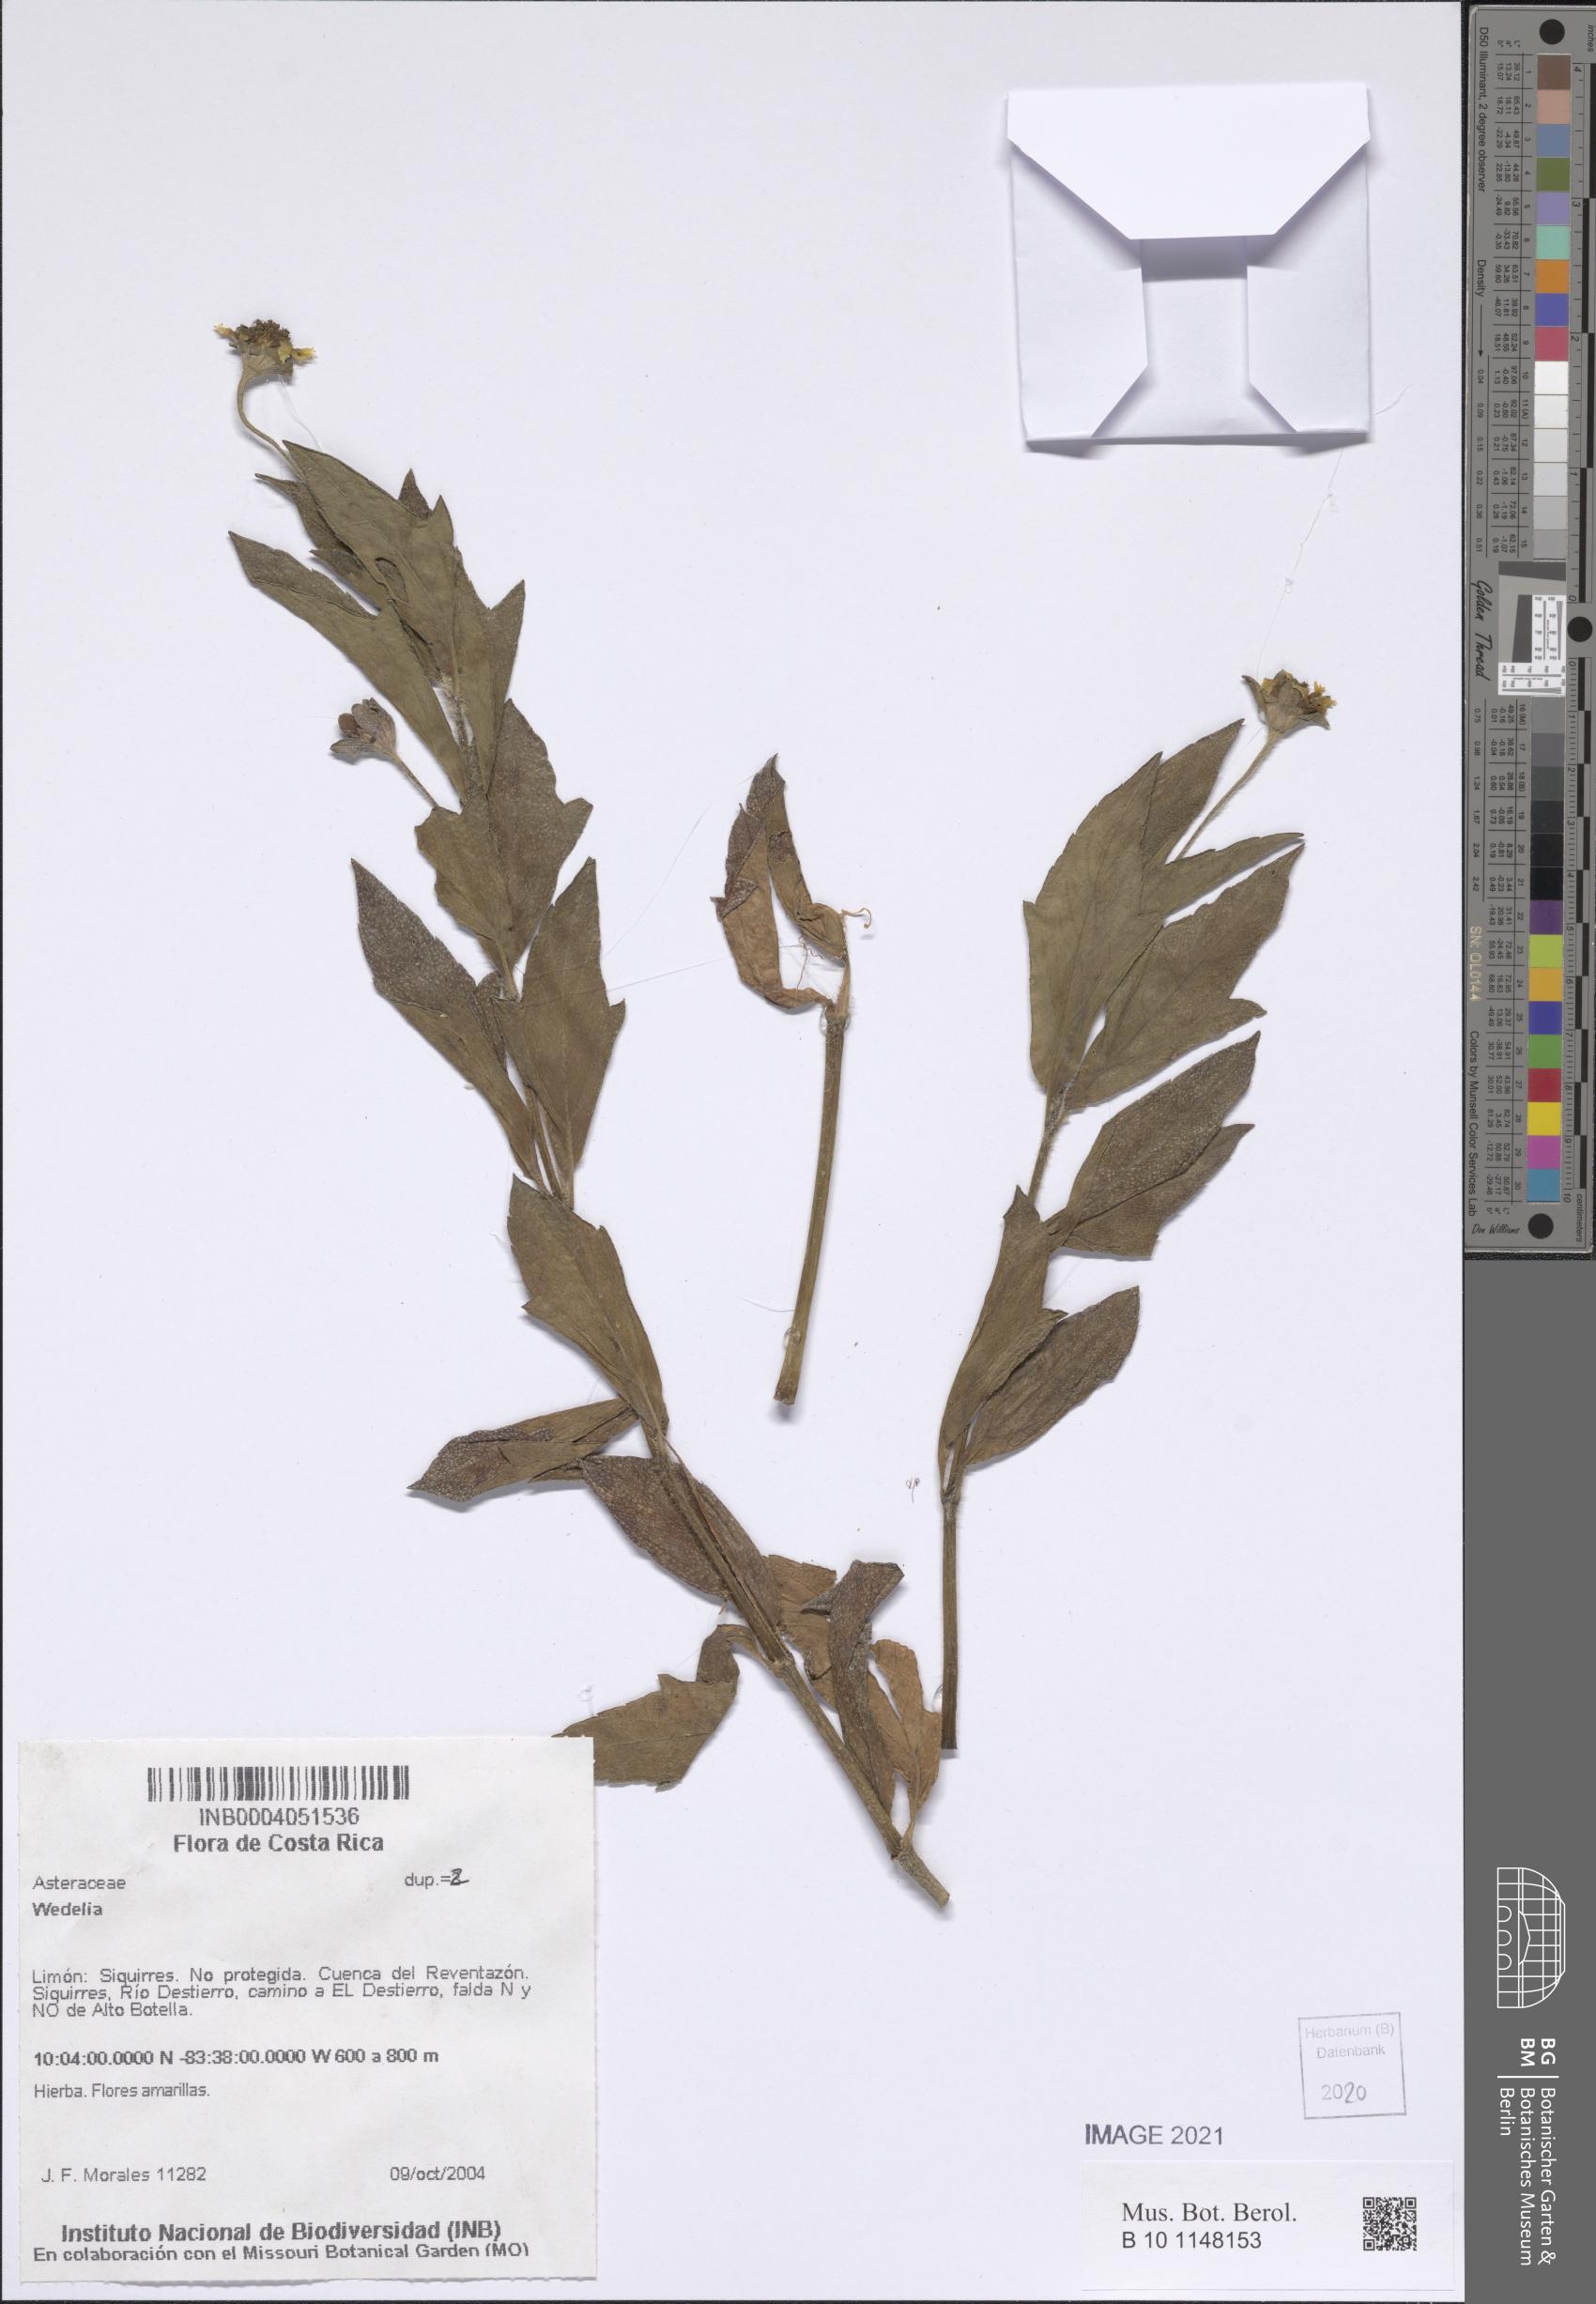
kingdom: Plantae
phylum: Tracheophyta
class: Magnoliopsida
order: Asterales
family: Asteraceae
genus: Wedelia
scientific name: Wedelia
